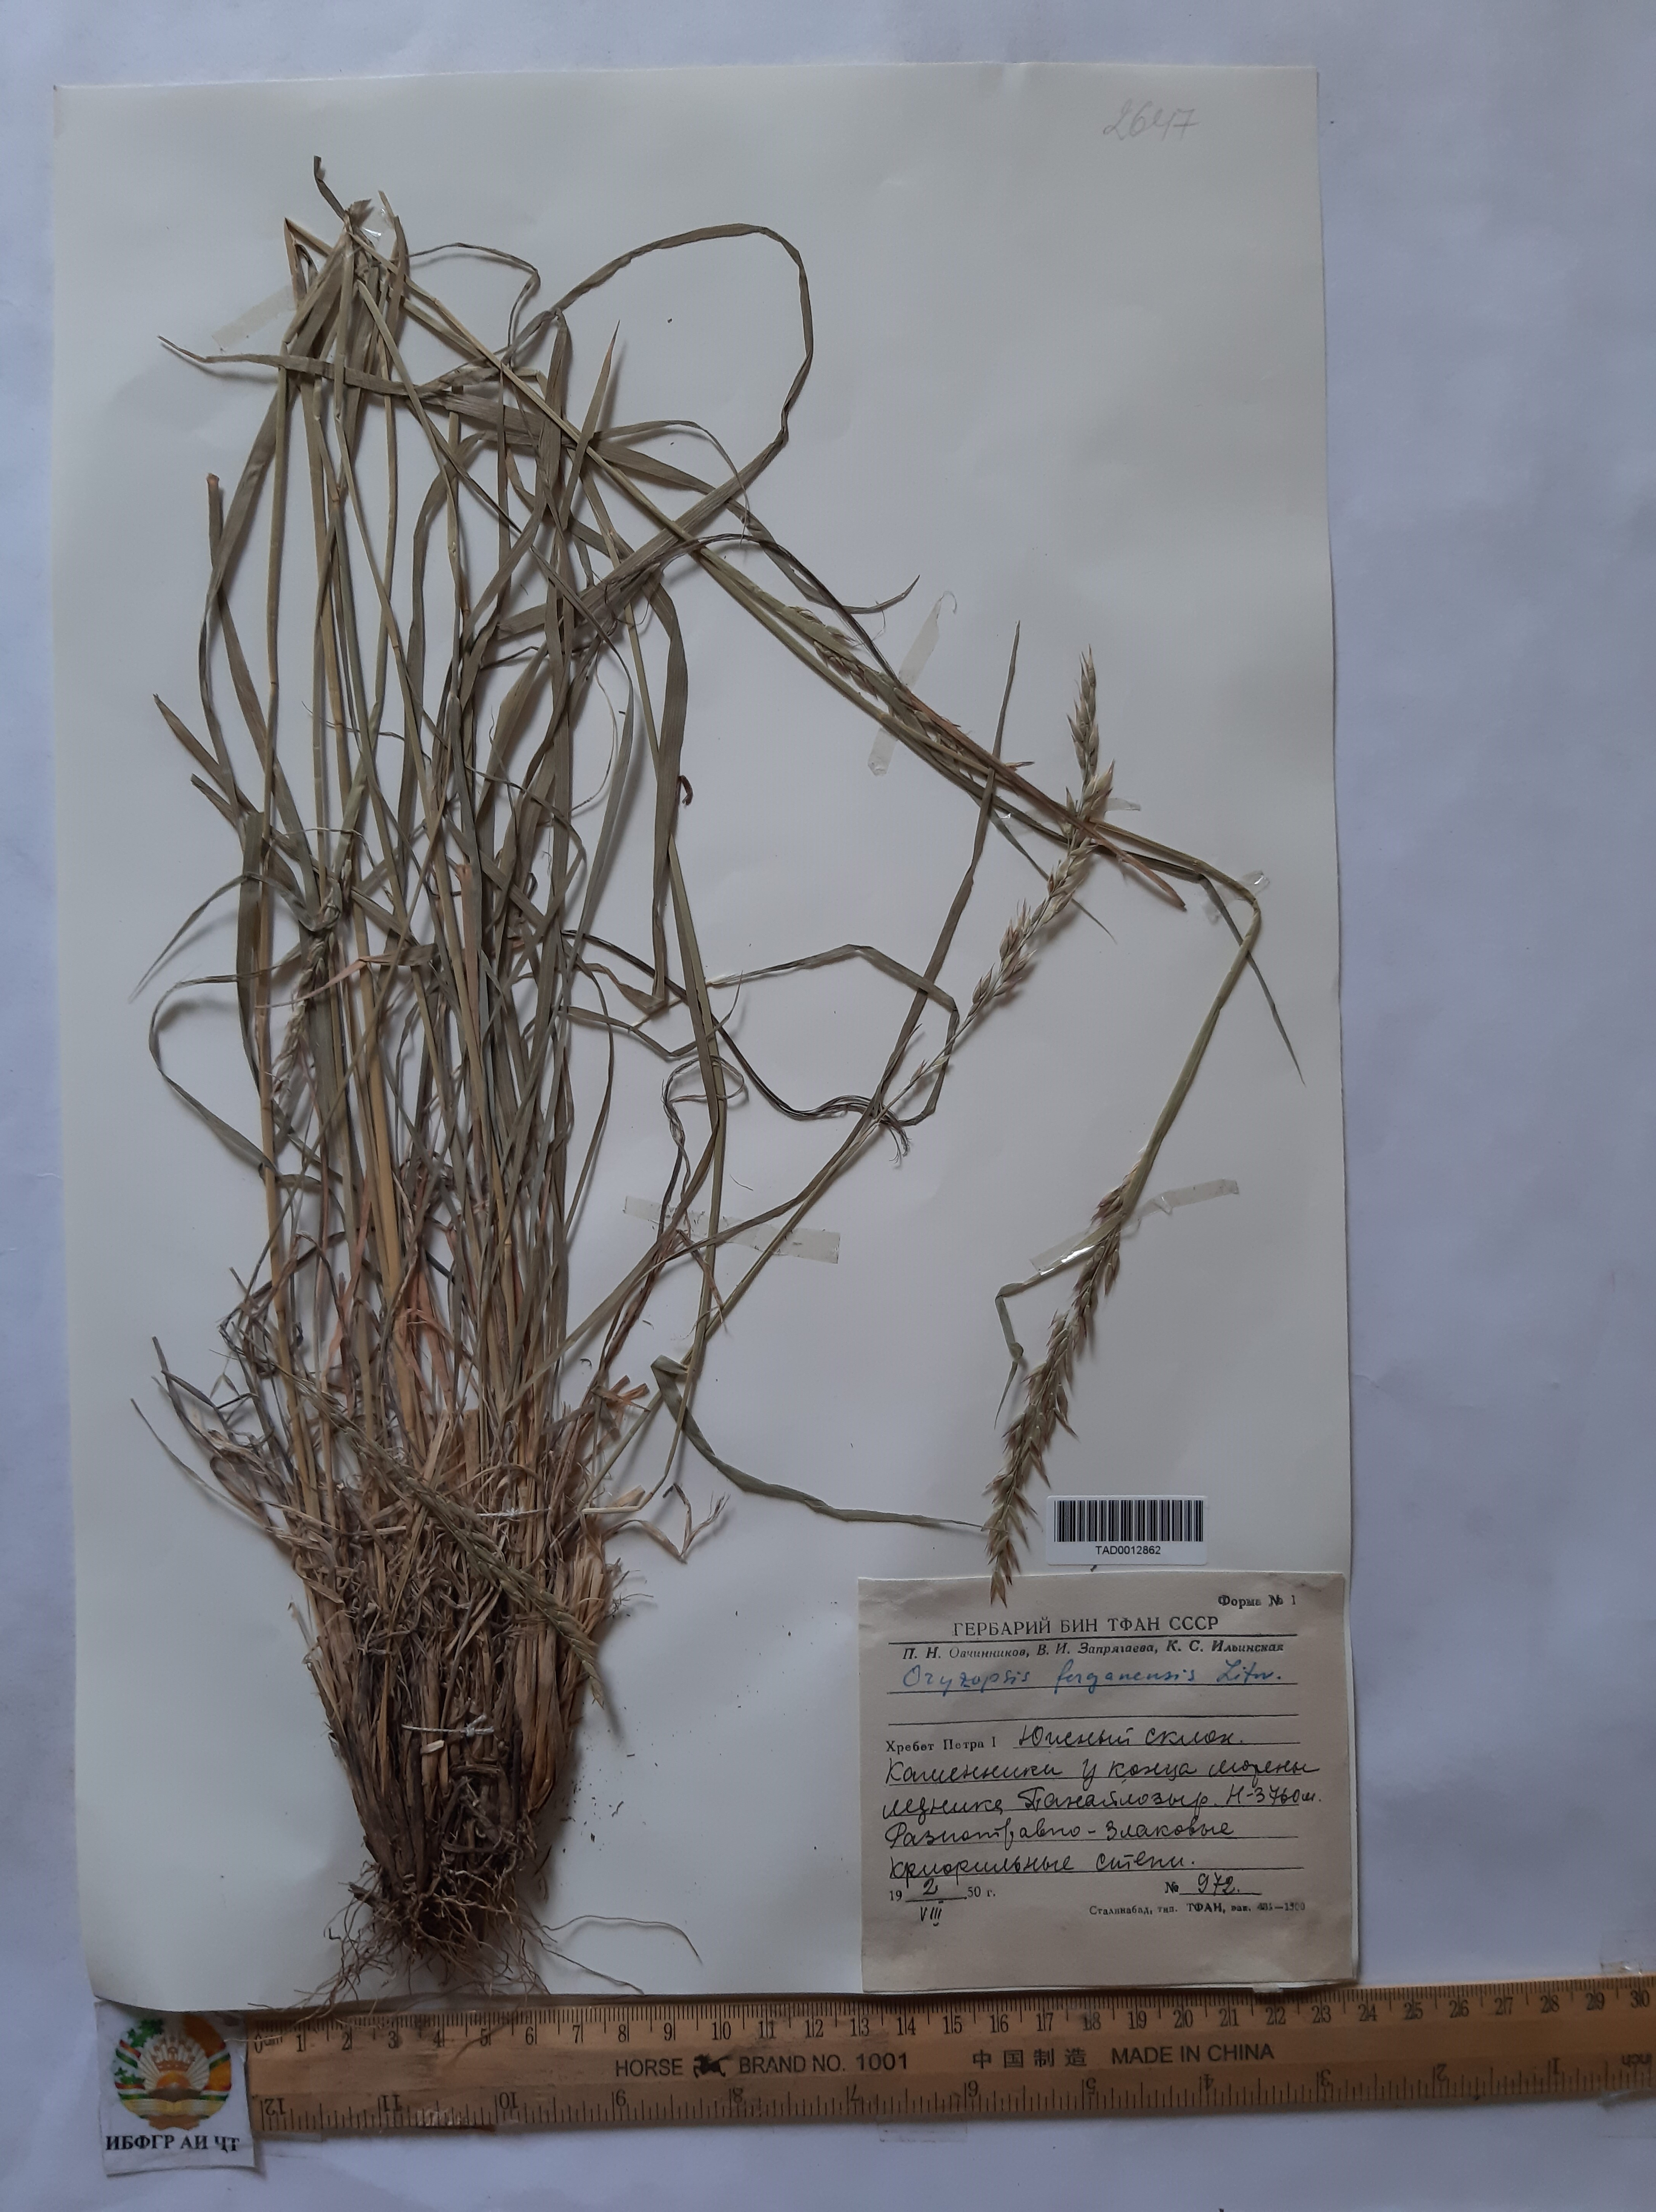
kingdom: Plantae
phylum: Tracheophyta
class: Liliopsida
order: Poales
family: Poaceae
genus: Piptatherum
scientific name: Piptatherum ferganense
